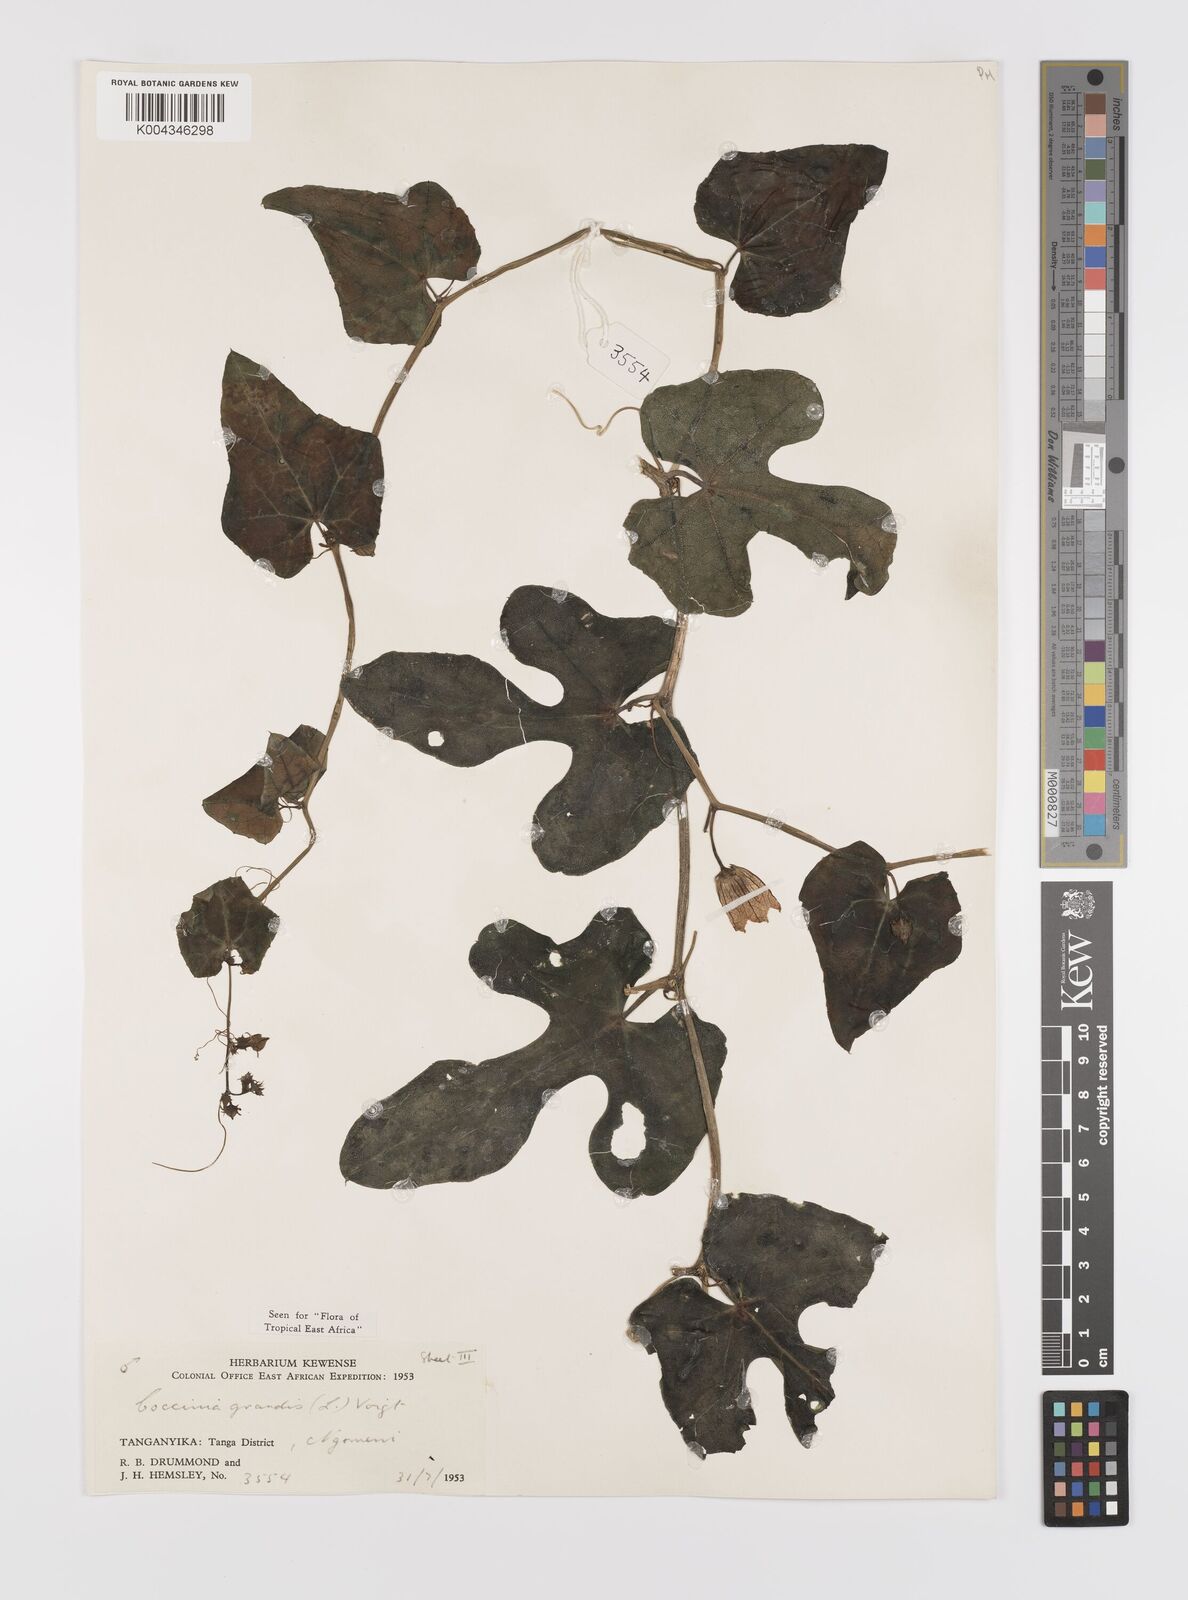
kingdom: Plantae
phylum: Tracheophyta
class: Magnoliopsida
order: Cucurbitales
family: Cucurbitaceae
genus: Coccinia
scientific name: Coccinia grandis
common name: Ivy gourd
